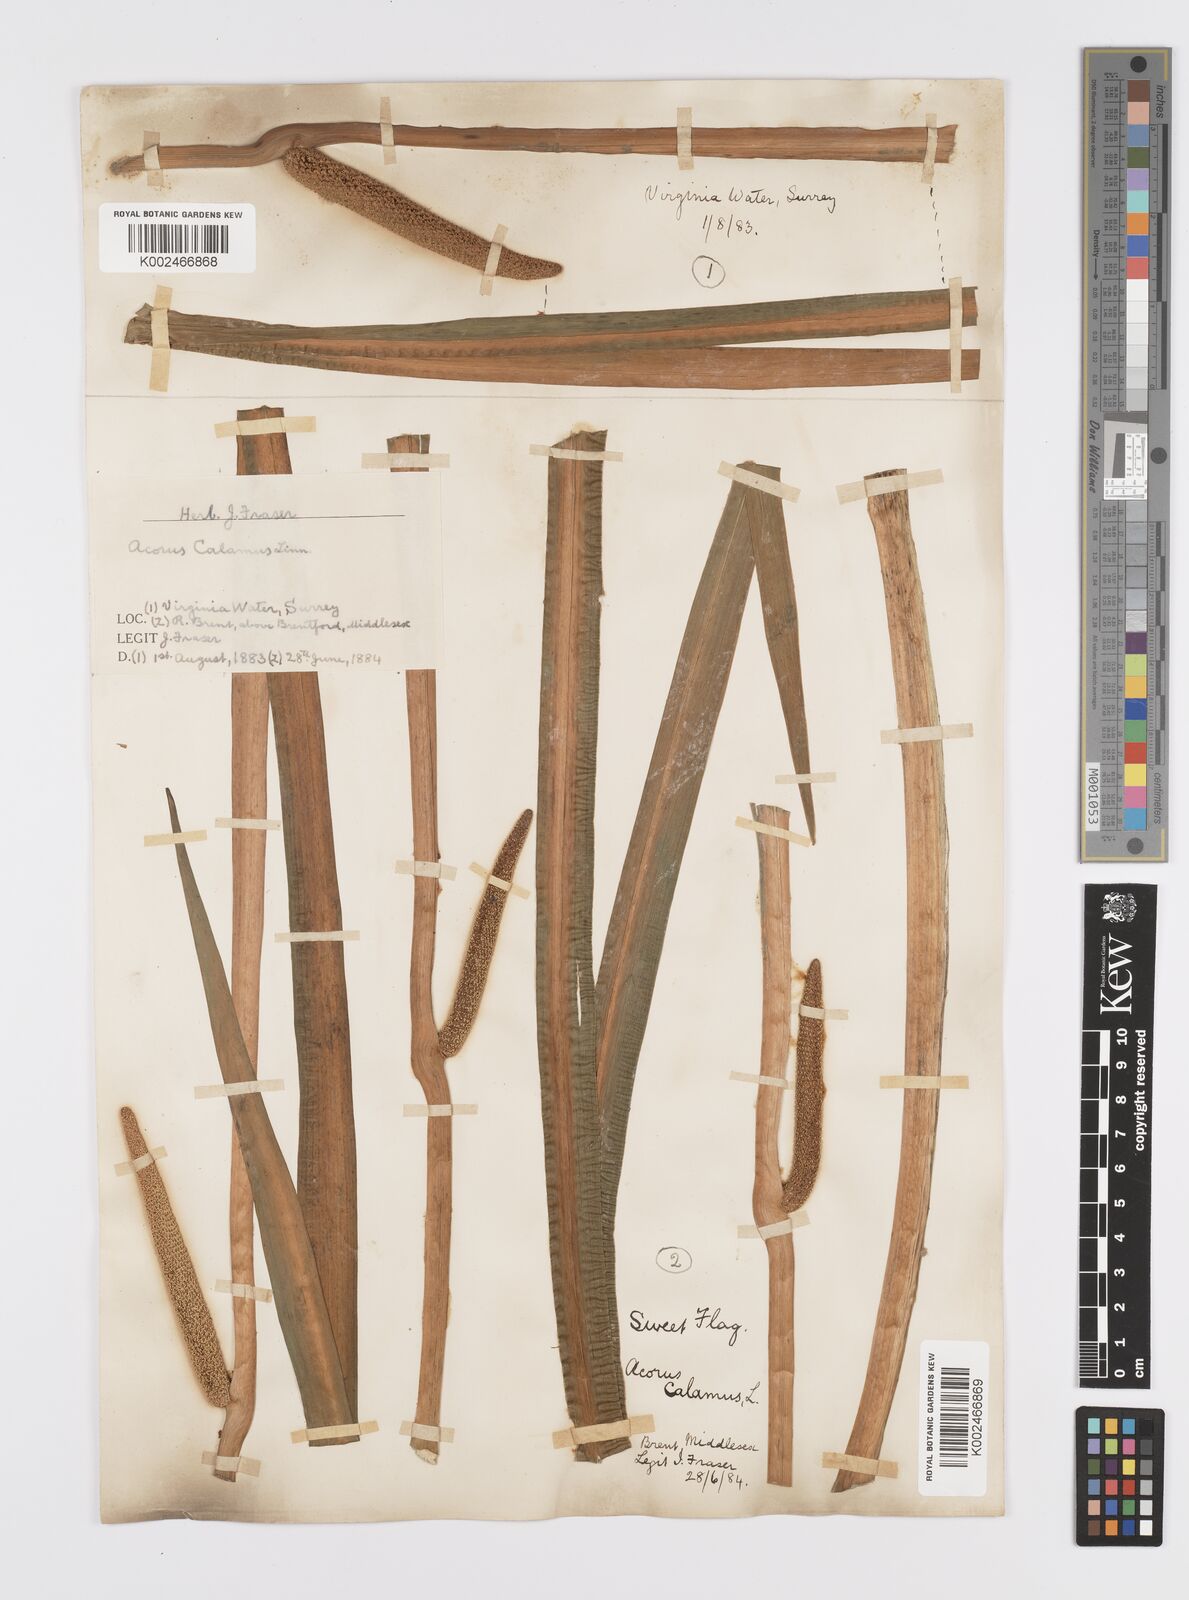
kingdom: Plantae
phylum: Tracheophyta
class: Liliopsida
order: Acorales
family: Acoraceae
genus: Acorus
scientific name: Acorus calamus
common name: Sweet-flag
